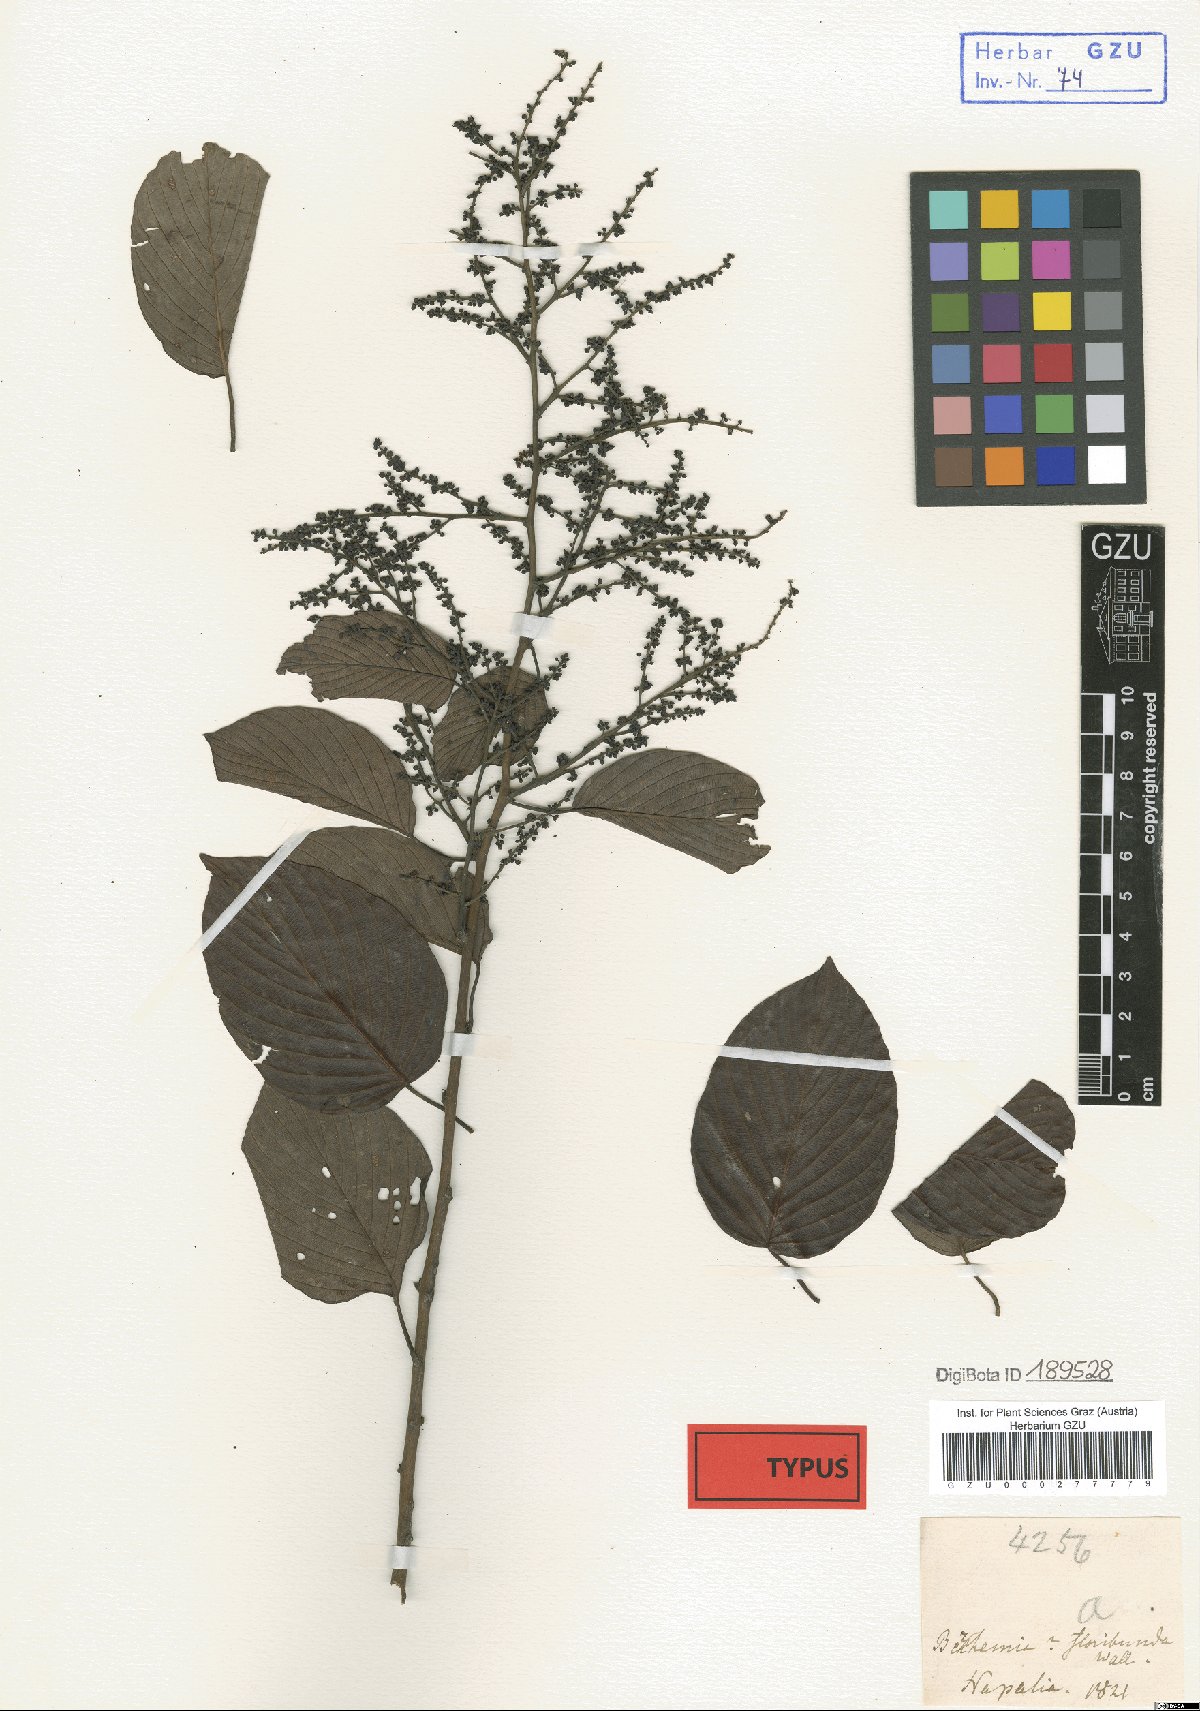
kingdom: Plantae
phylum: Tracheophyta
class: Magnoliopsida
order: Rosales
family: Rhamnaceae
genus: Berchemia
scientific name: Berchemia floribunda
